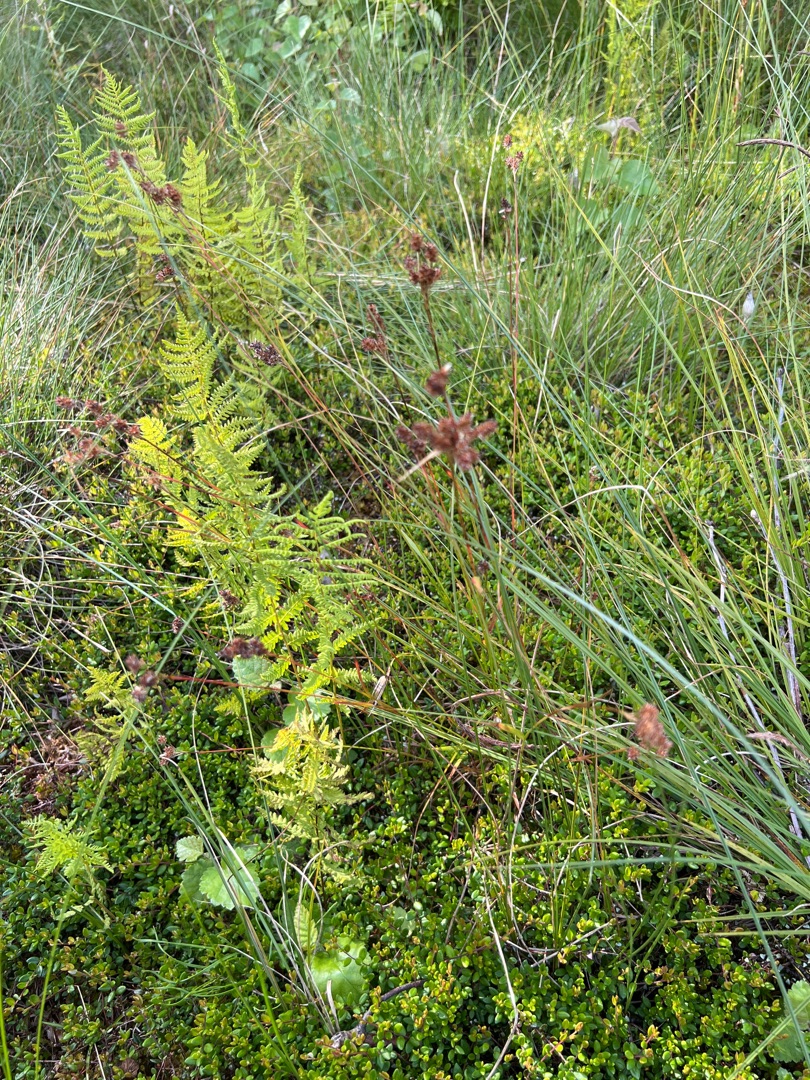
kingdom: Plantae
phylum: Tracheophyta
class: Liliopsida
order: Poales
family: Juncaceae
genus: Luzula
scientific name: Luzula multiflora
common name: Mangeblomstret frytle
